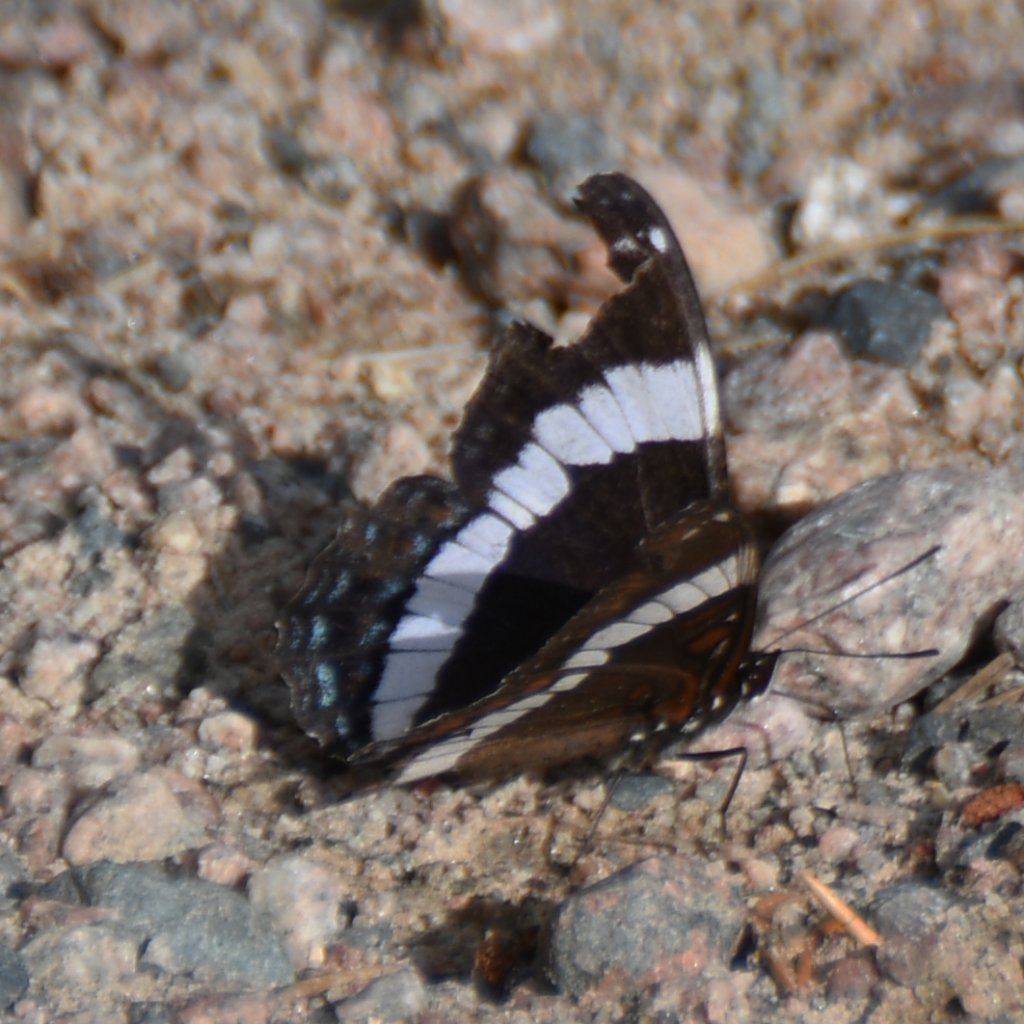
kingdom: Animalia
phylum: Arthropoda
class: Insecta
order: Lepidoptera
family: Nymphalidae
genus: Limenitis
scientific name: Limenitis arthemis
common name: Red-spotted Admiral
